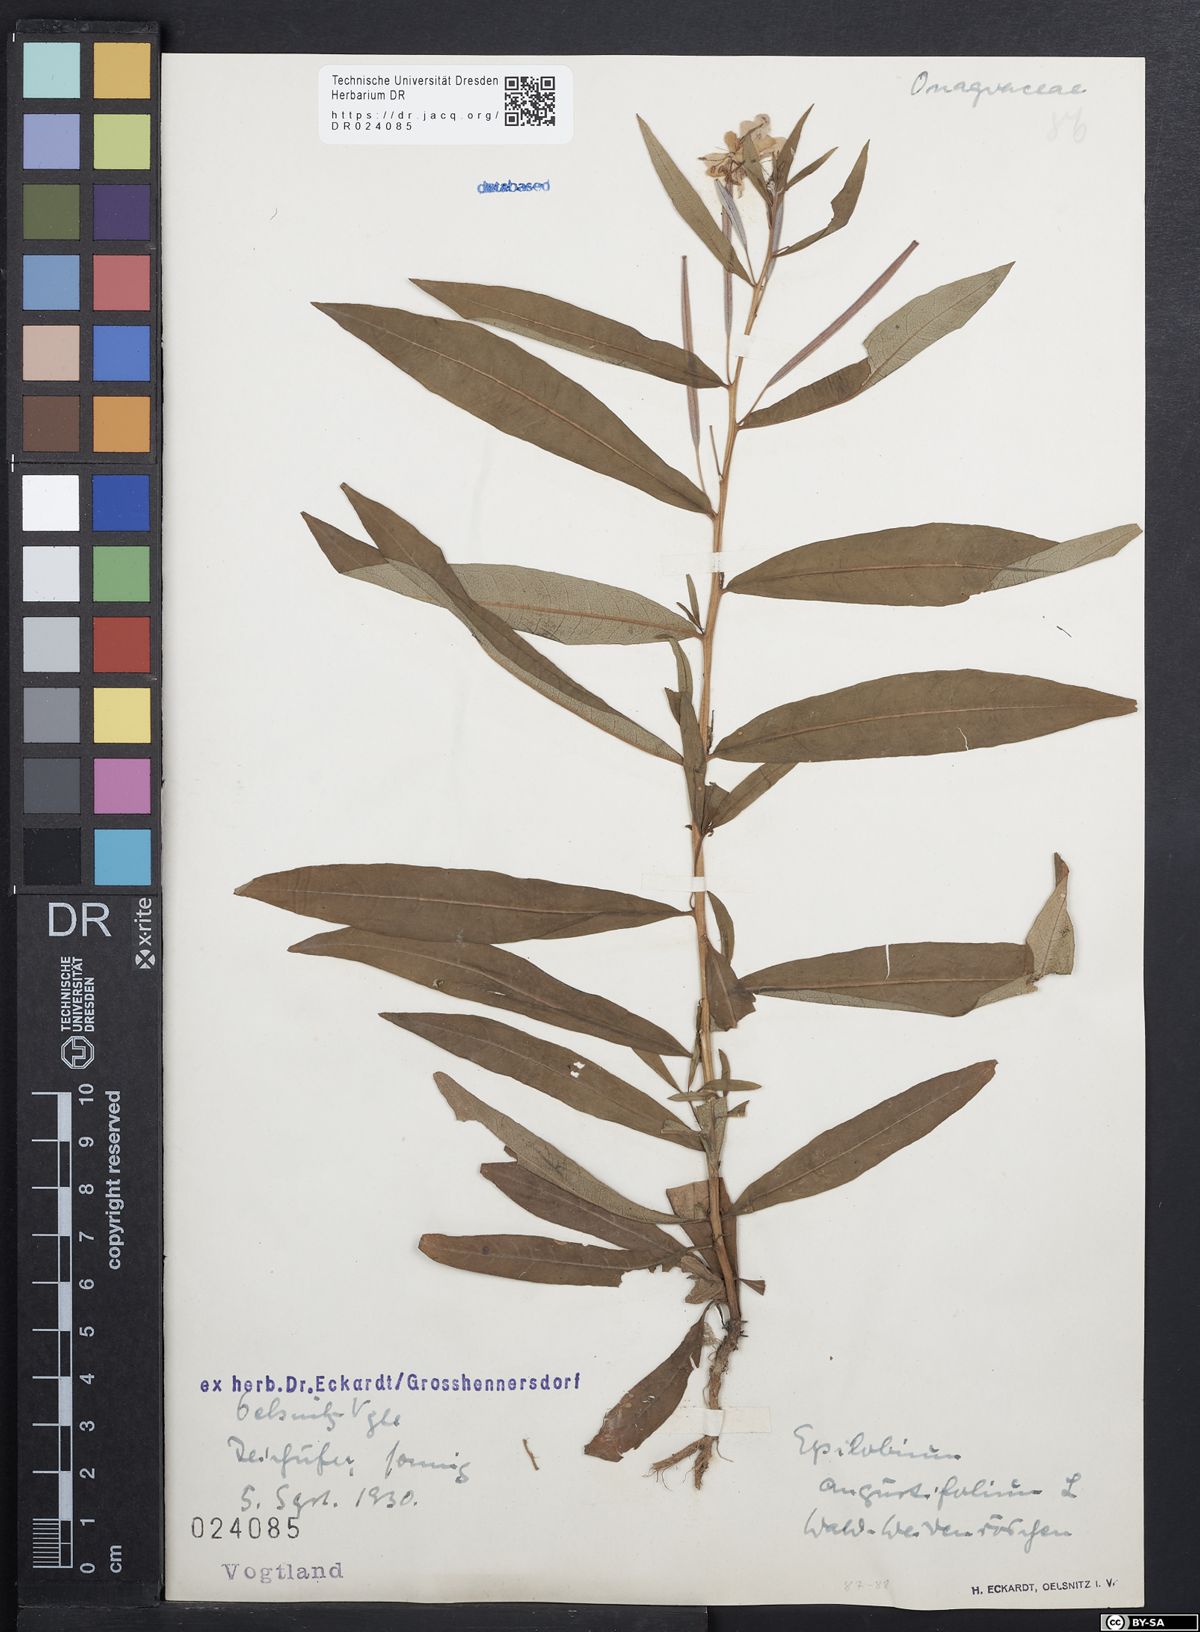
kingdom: Plantae
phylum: Tracheophyta
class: Magnoliopsida
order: Myrtales
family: Onagraceae
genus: Chamaenerion
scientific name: Chamaenerion angustifolium
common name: Fireweed
